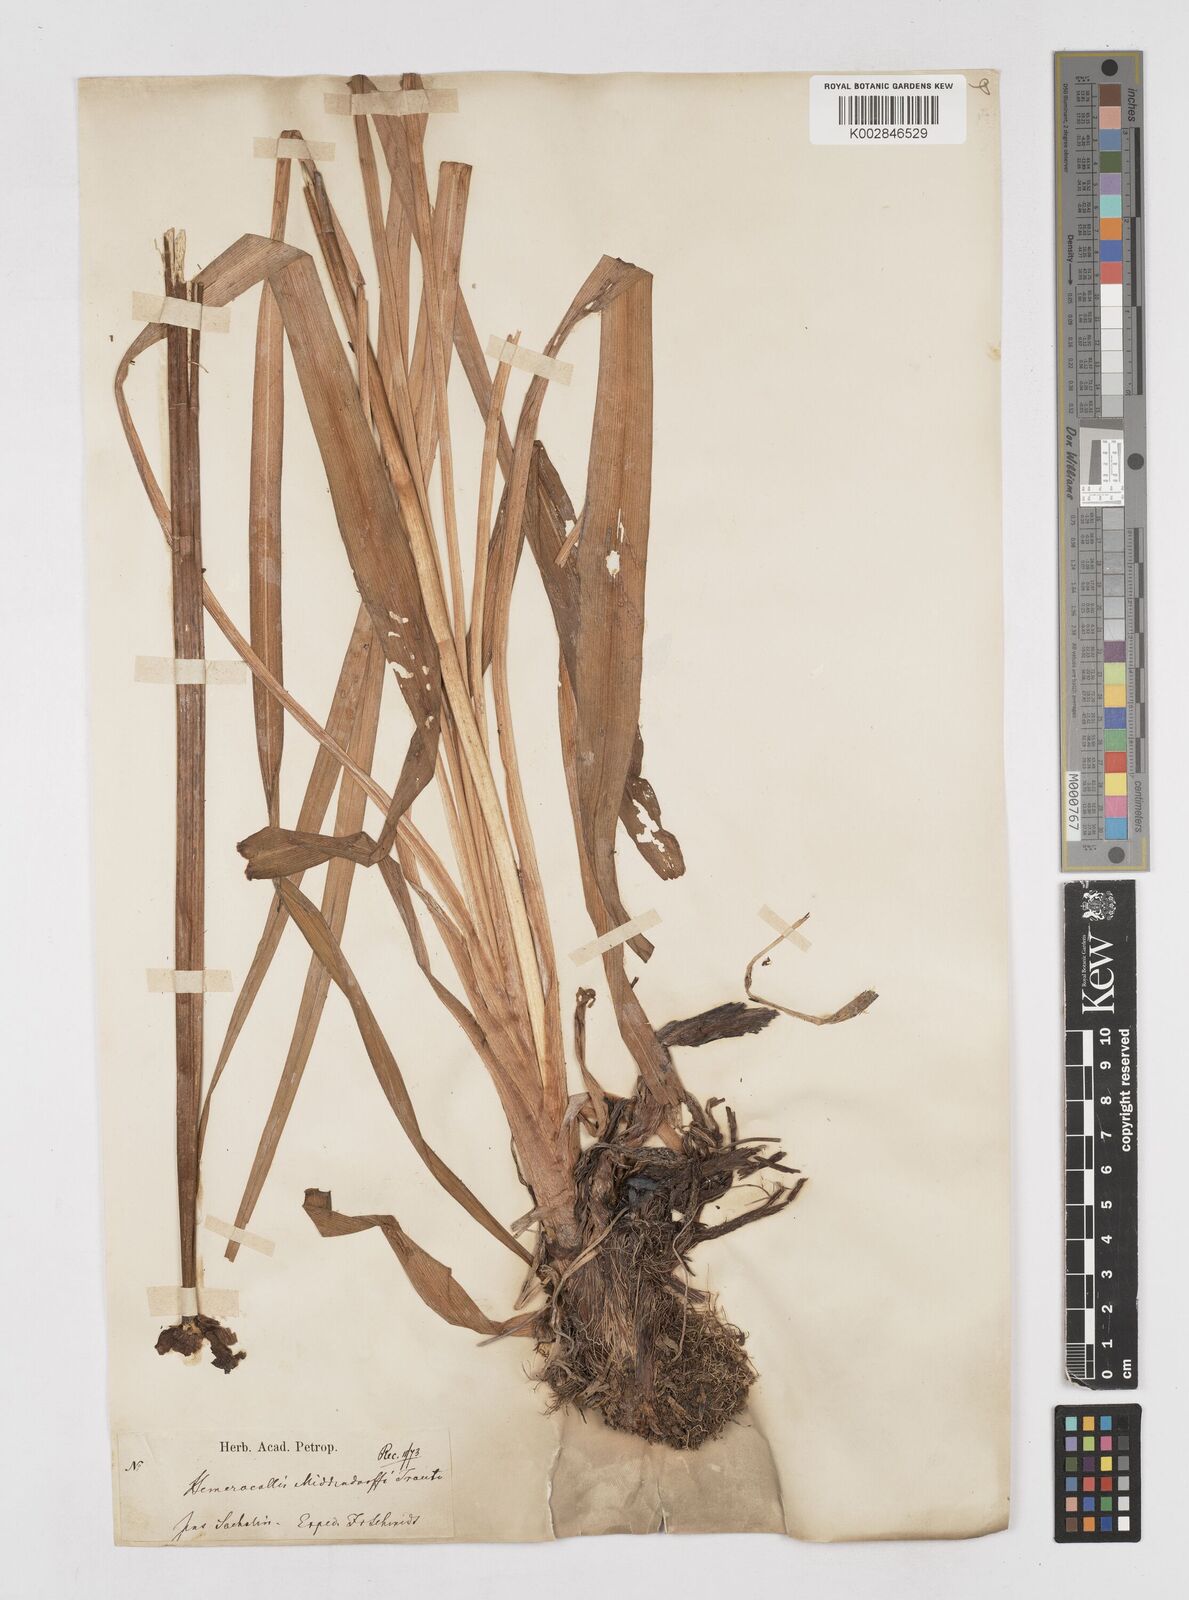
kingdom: Plantae
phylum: Tracheophyta
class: Liliopsida
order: Asparagales
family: Asphodelaceae
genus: Hemerocallis
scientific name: Hemerocallis middendorffii
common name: Amur day-lily
